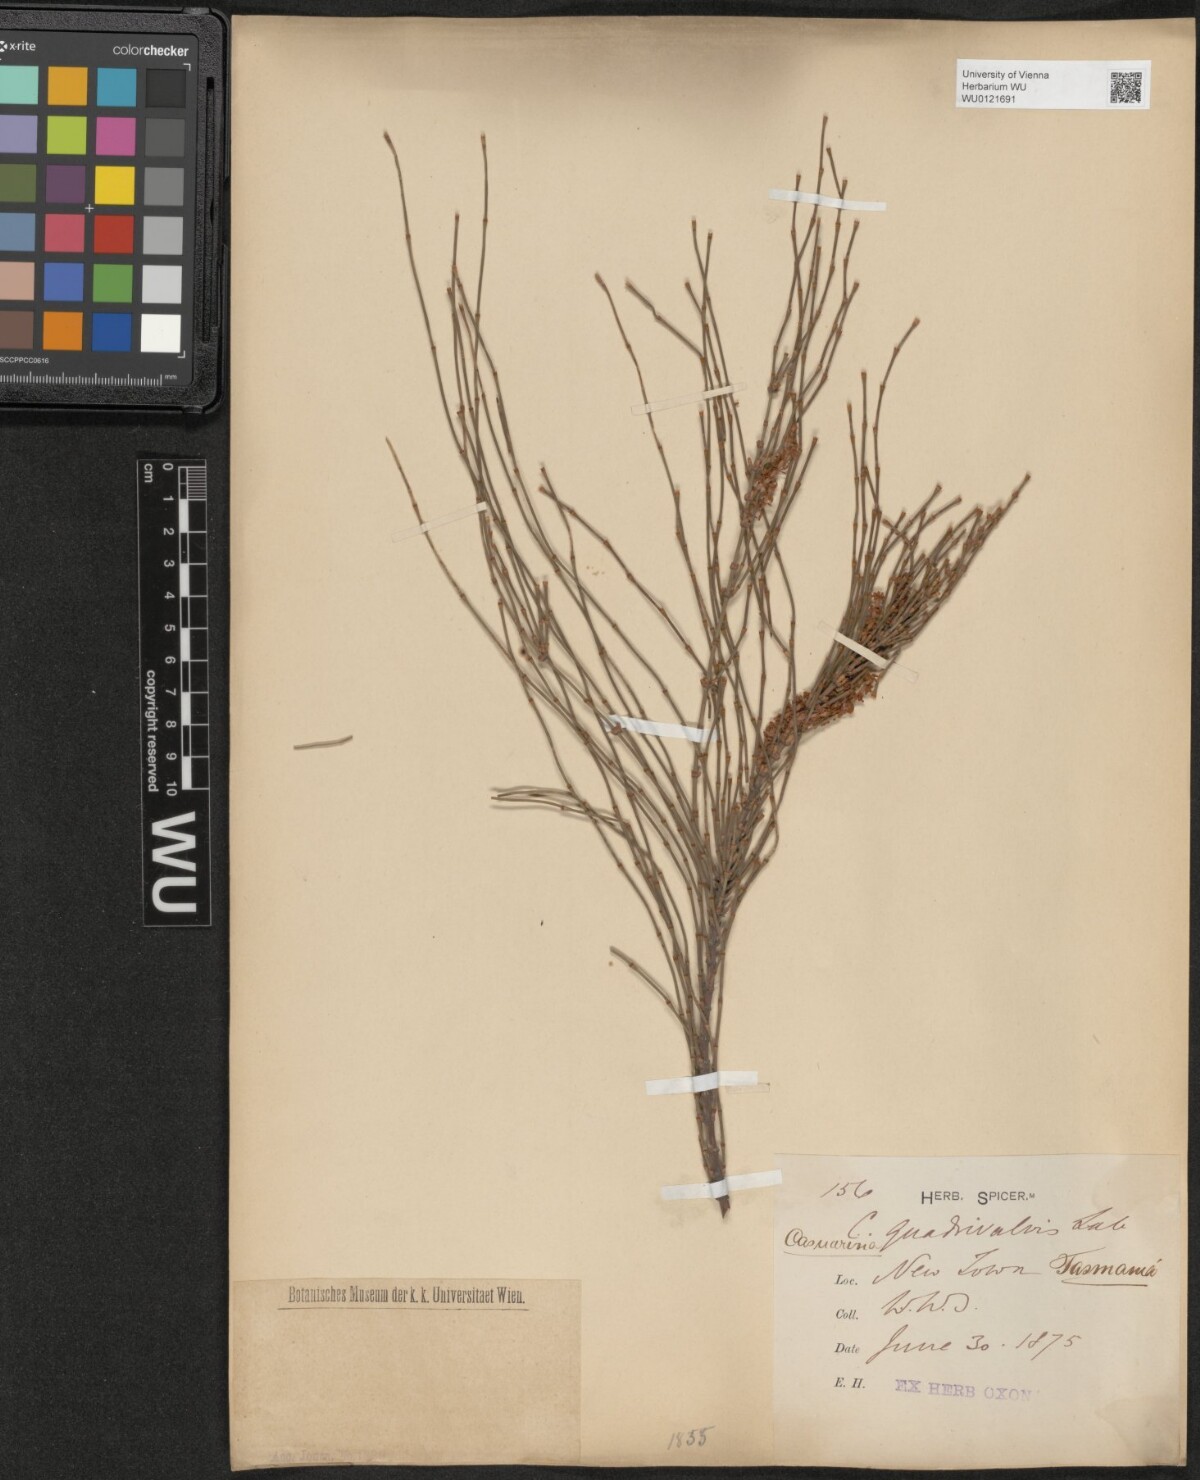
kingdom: Plantae
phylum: Tracheophyta
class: Magnoliopsida
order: Fagales
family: Casuarinaceae
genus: Allocasuarina
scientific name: Allocasuarina verticillata
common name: Drooping she-oak
